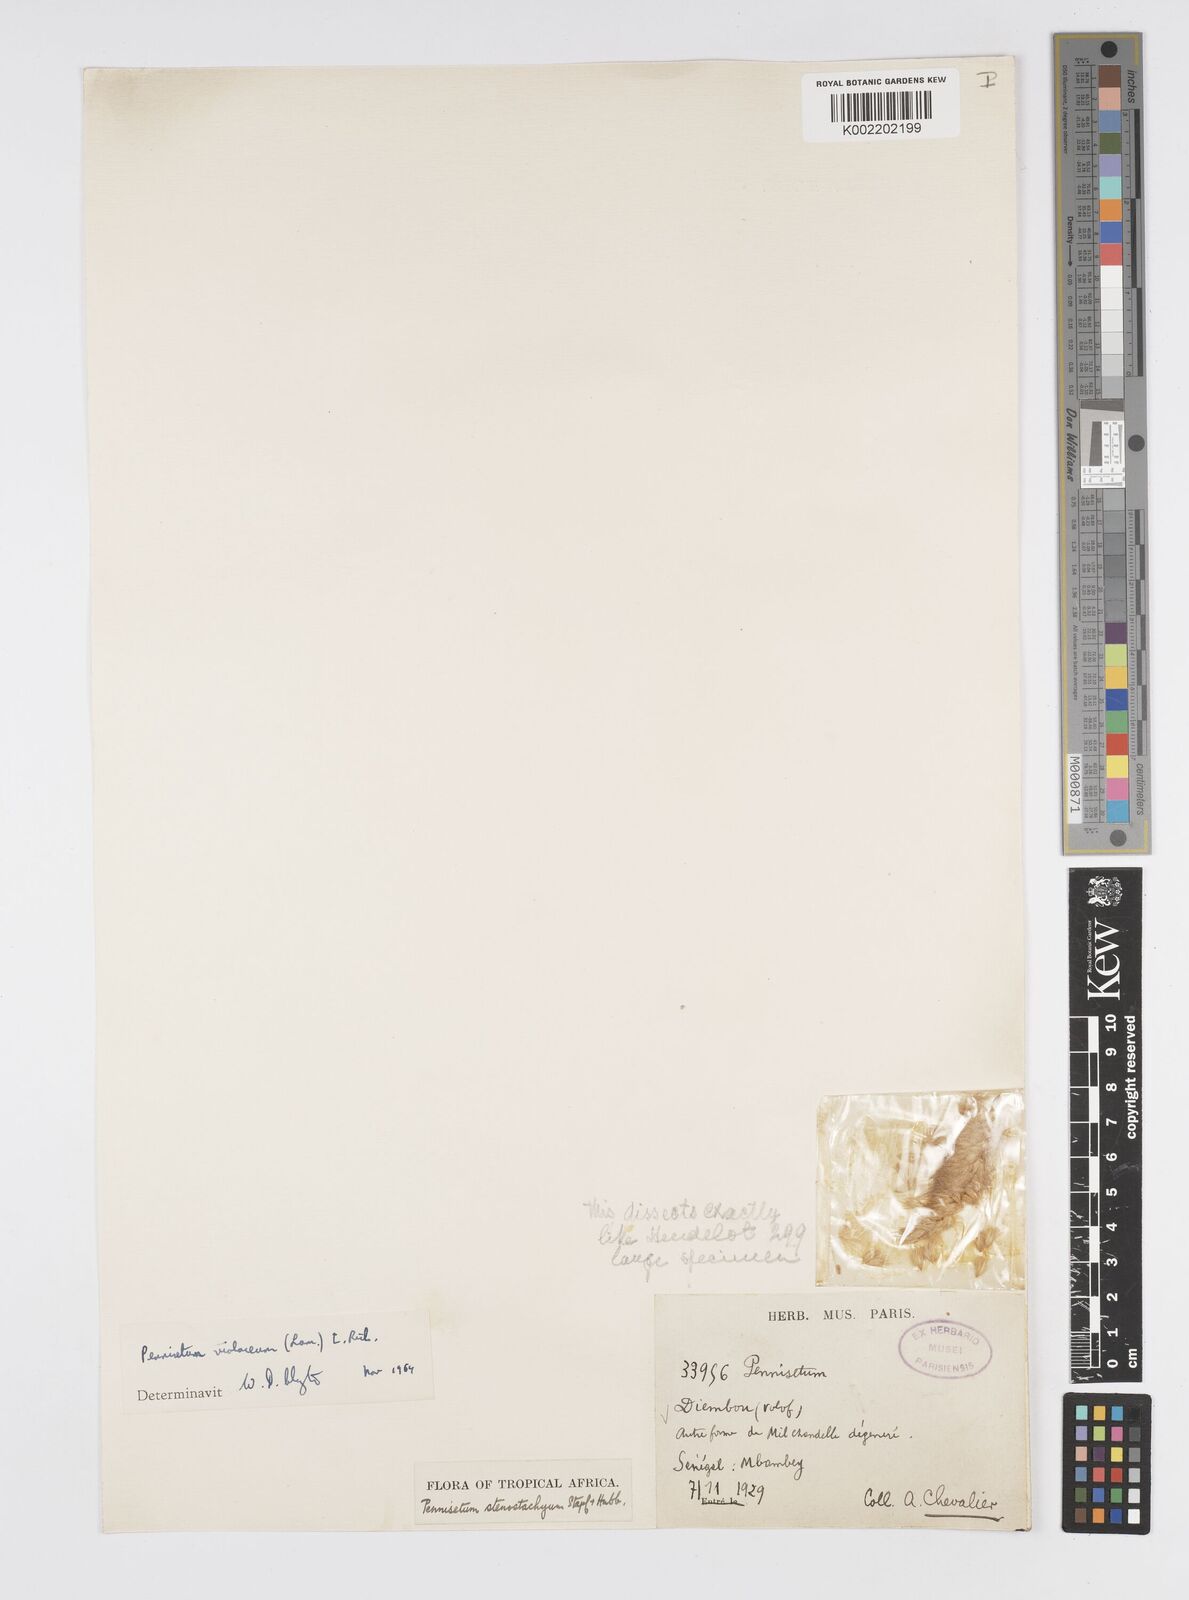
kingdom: Plantae
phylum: Tracheophyta
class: Liliopsida
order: Poales
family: Poaceae
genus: Cenchrus
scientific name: Cenchrus violaceus
